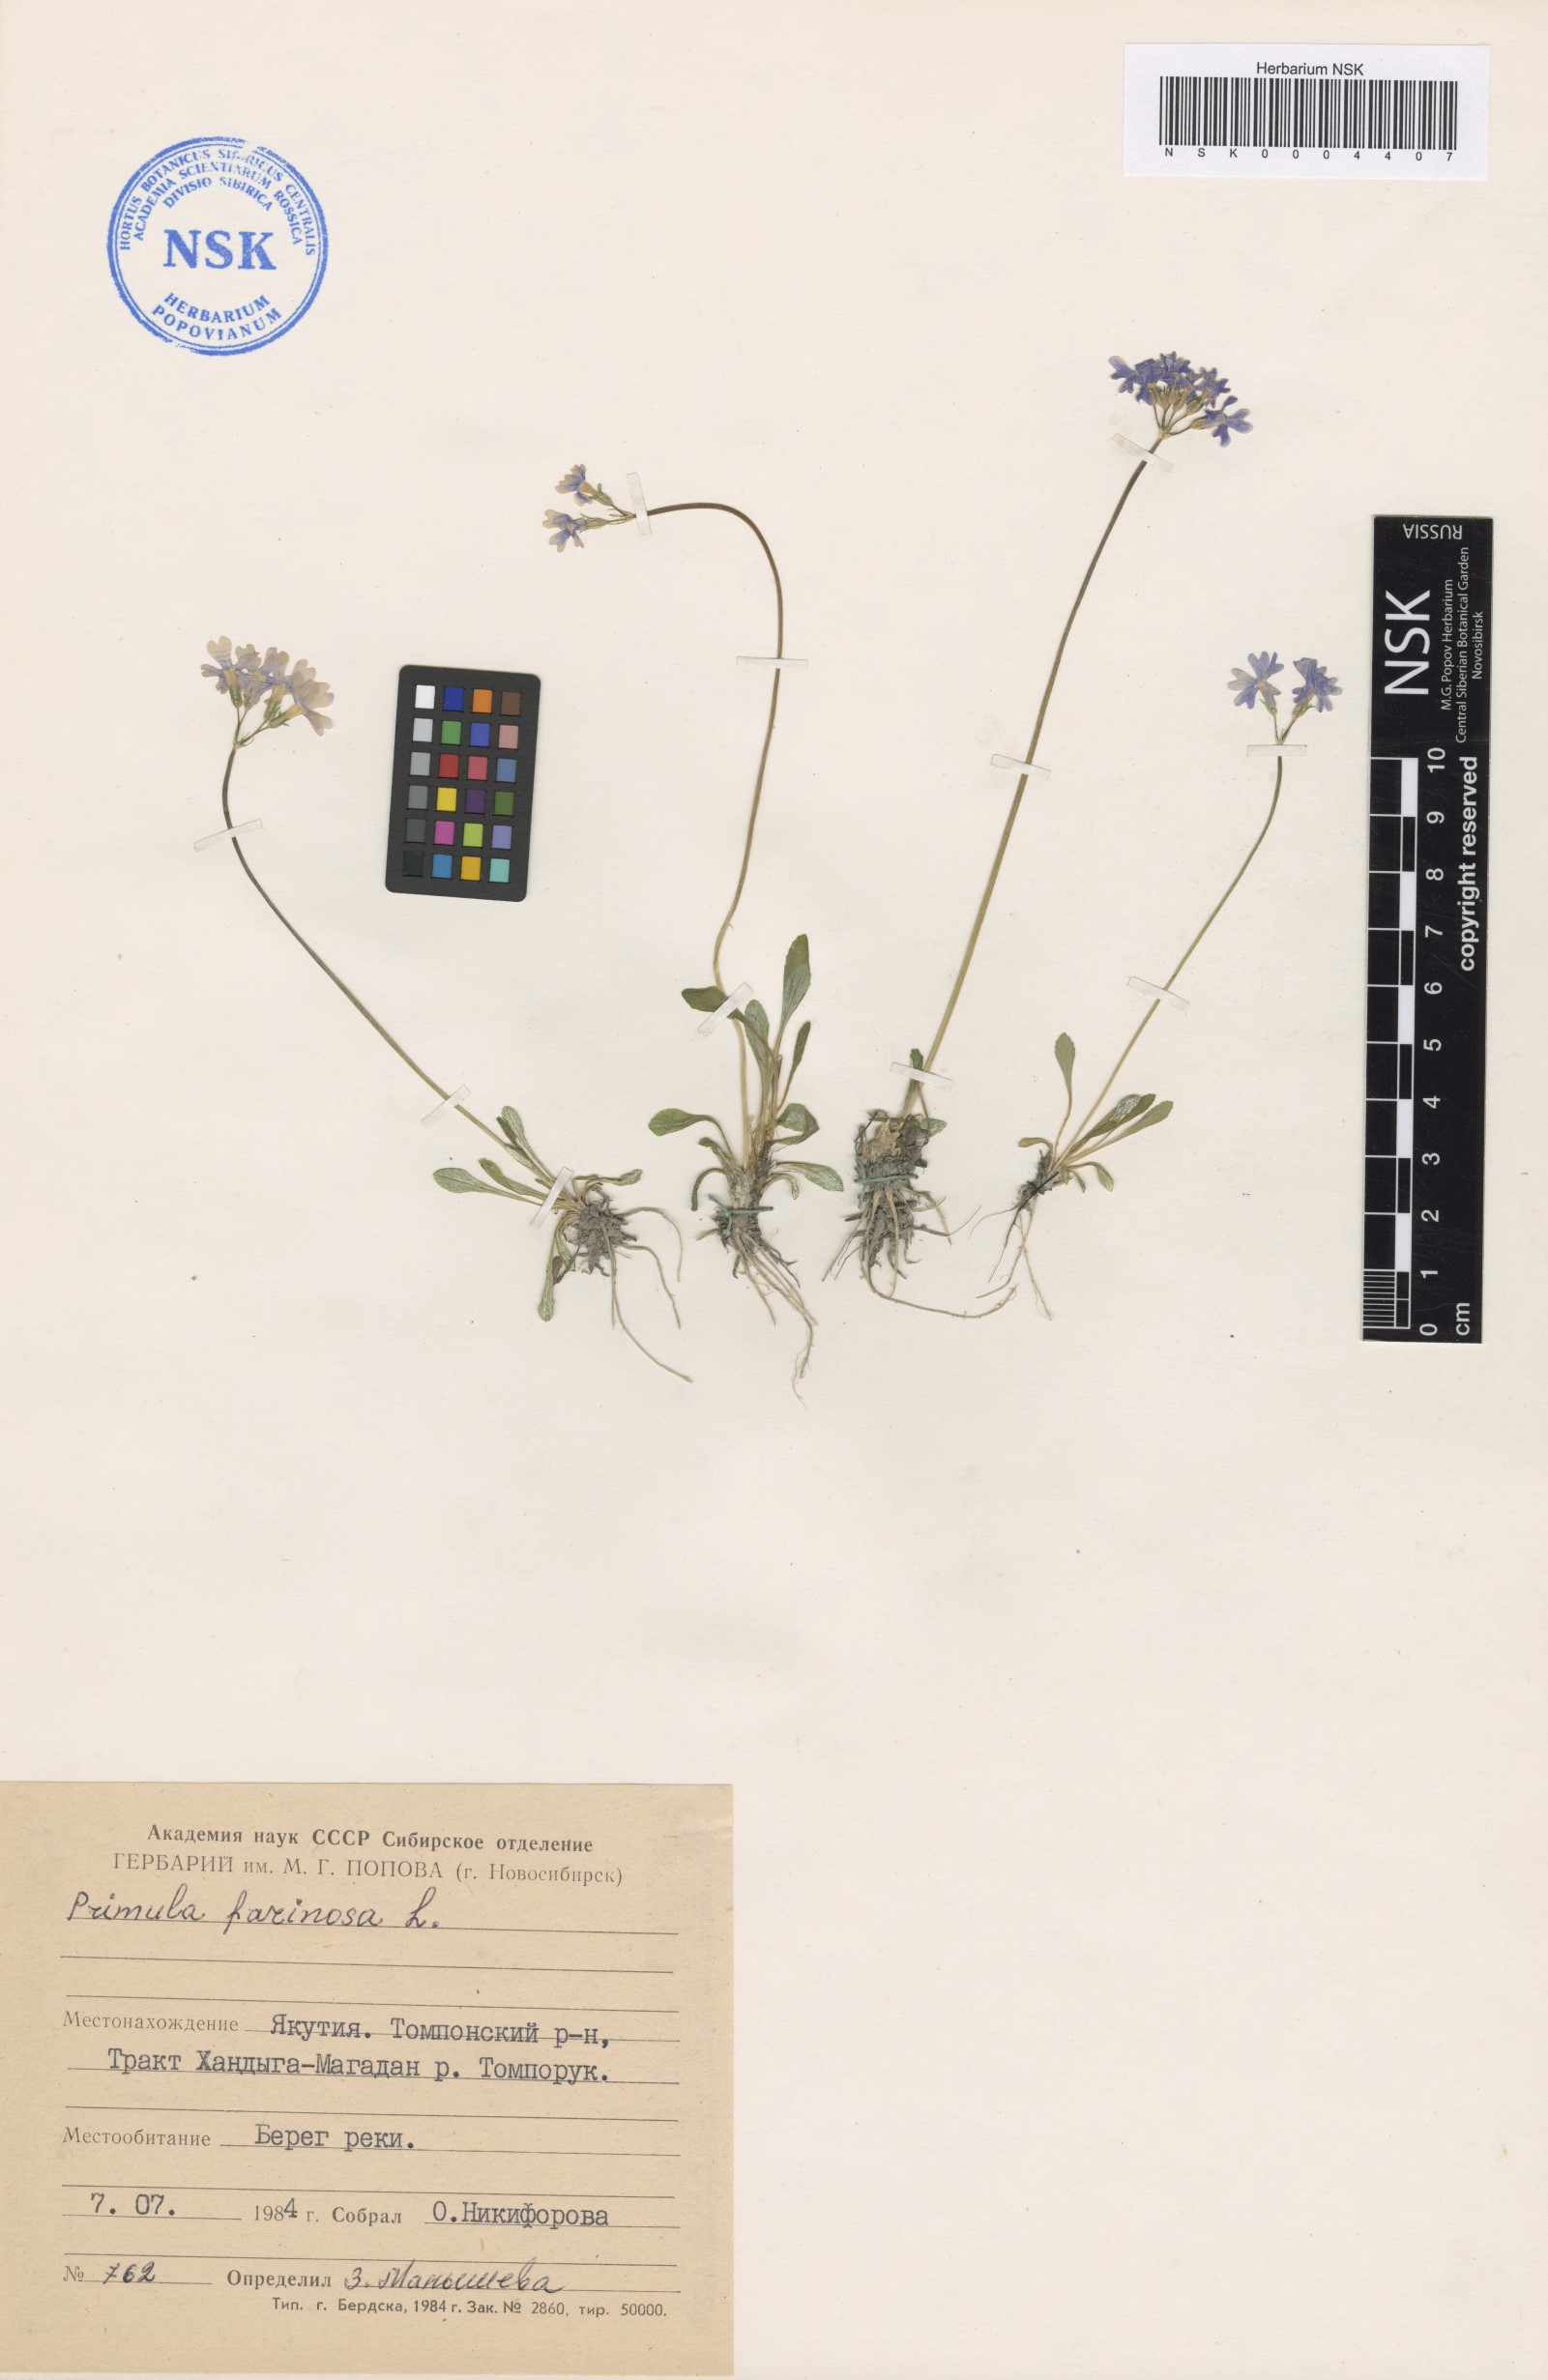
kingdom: Plantae
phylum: Tracheophyta
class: Magnoliopsida
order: Ericales
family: Primulaceae
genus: Primula
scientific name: Primula farinosa
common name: Bird's-eye primrose
